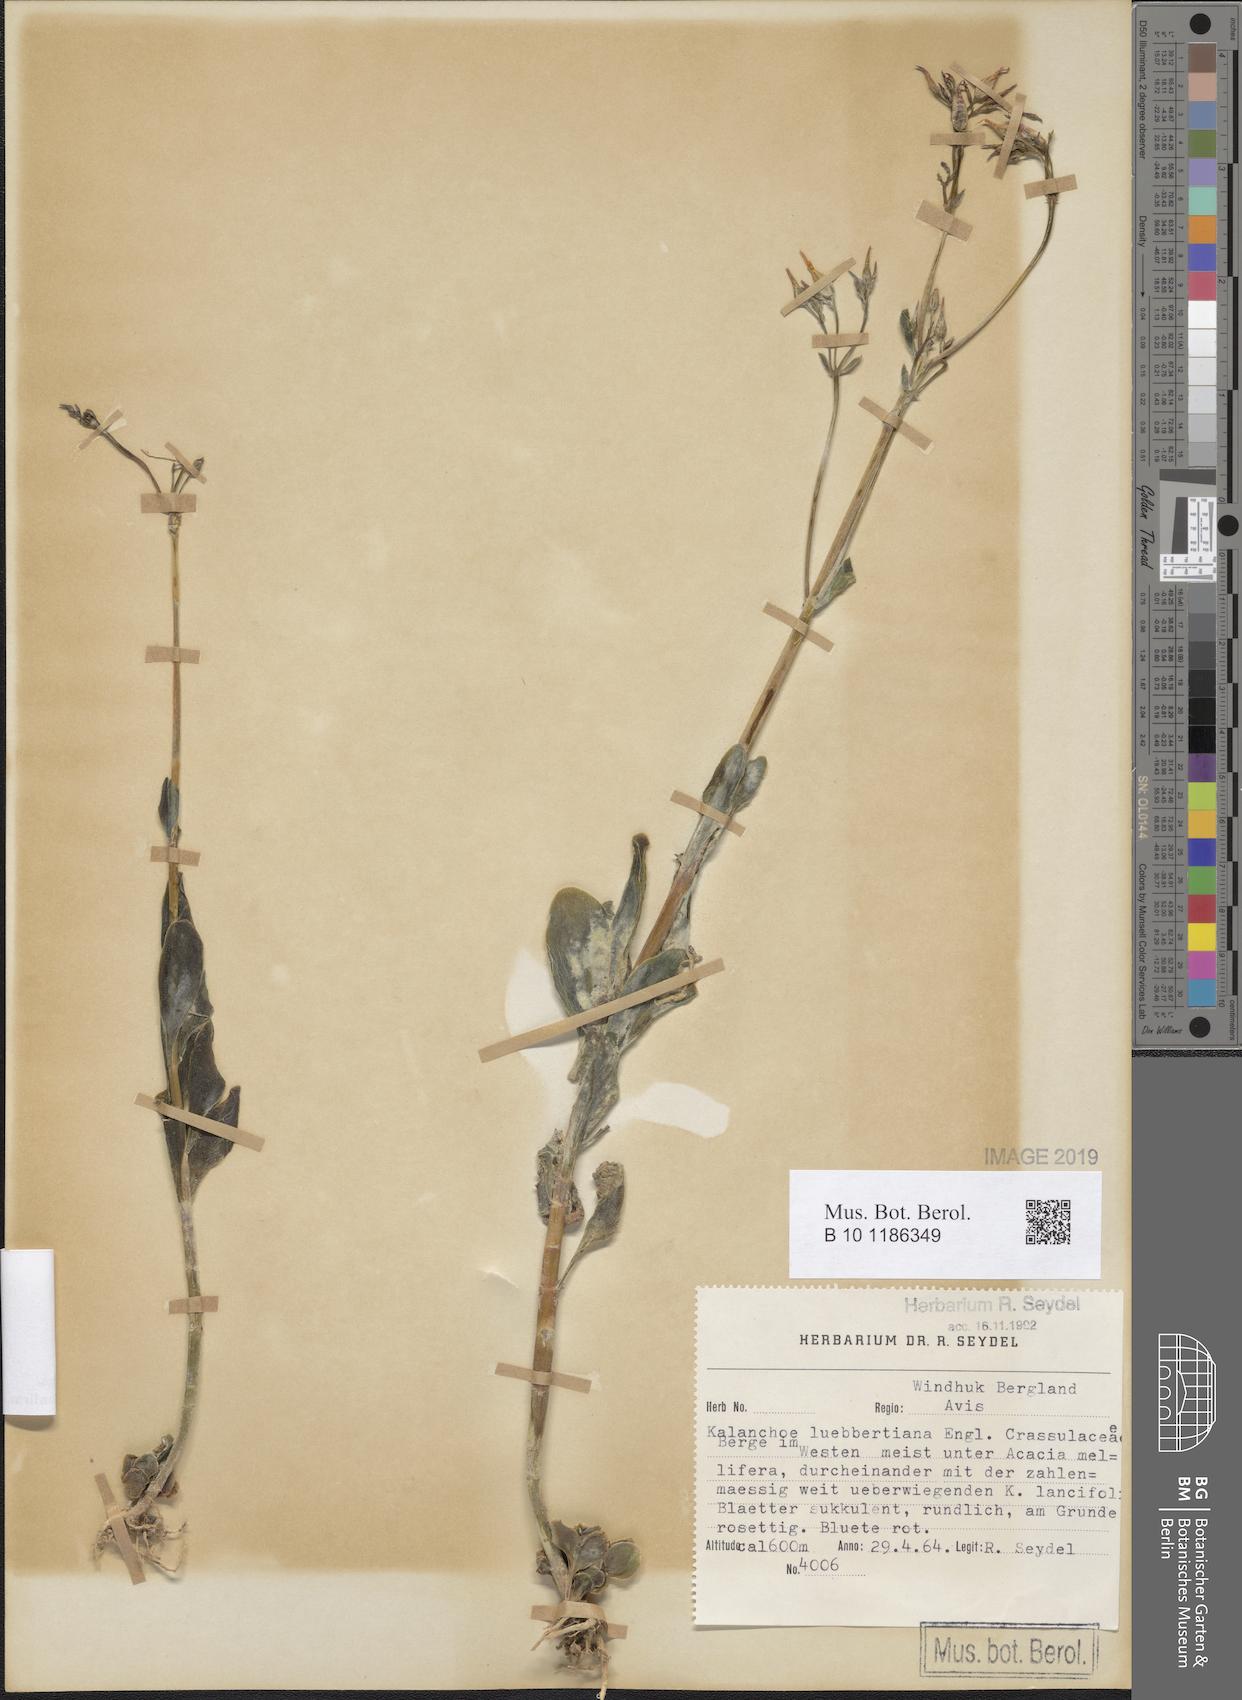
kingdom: Plantae
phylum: Tracheophyta
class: Magnoliopsida
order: Saxifragales
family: Crassulaceae
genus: Kalanchoe
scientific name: Kalanchoe rotundifolia
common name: Common kalanchoe
